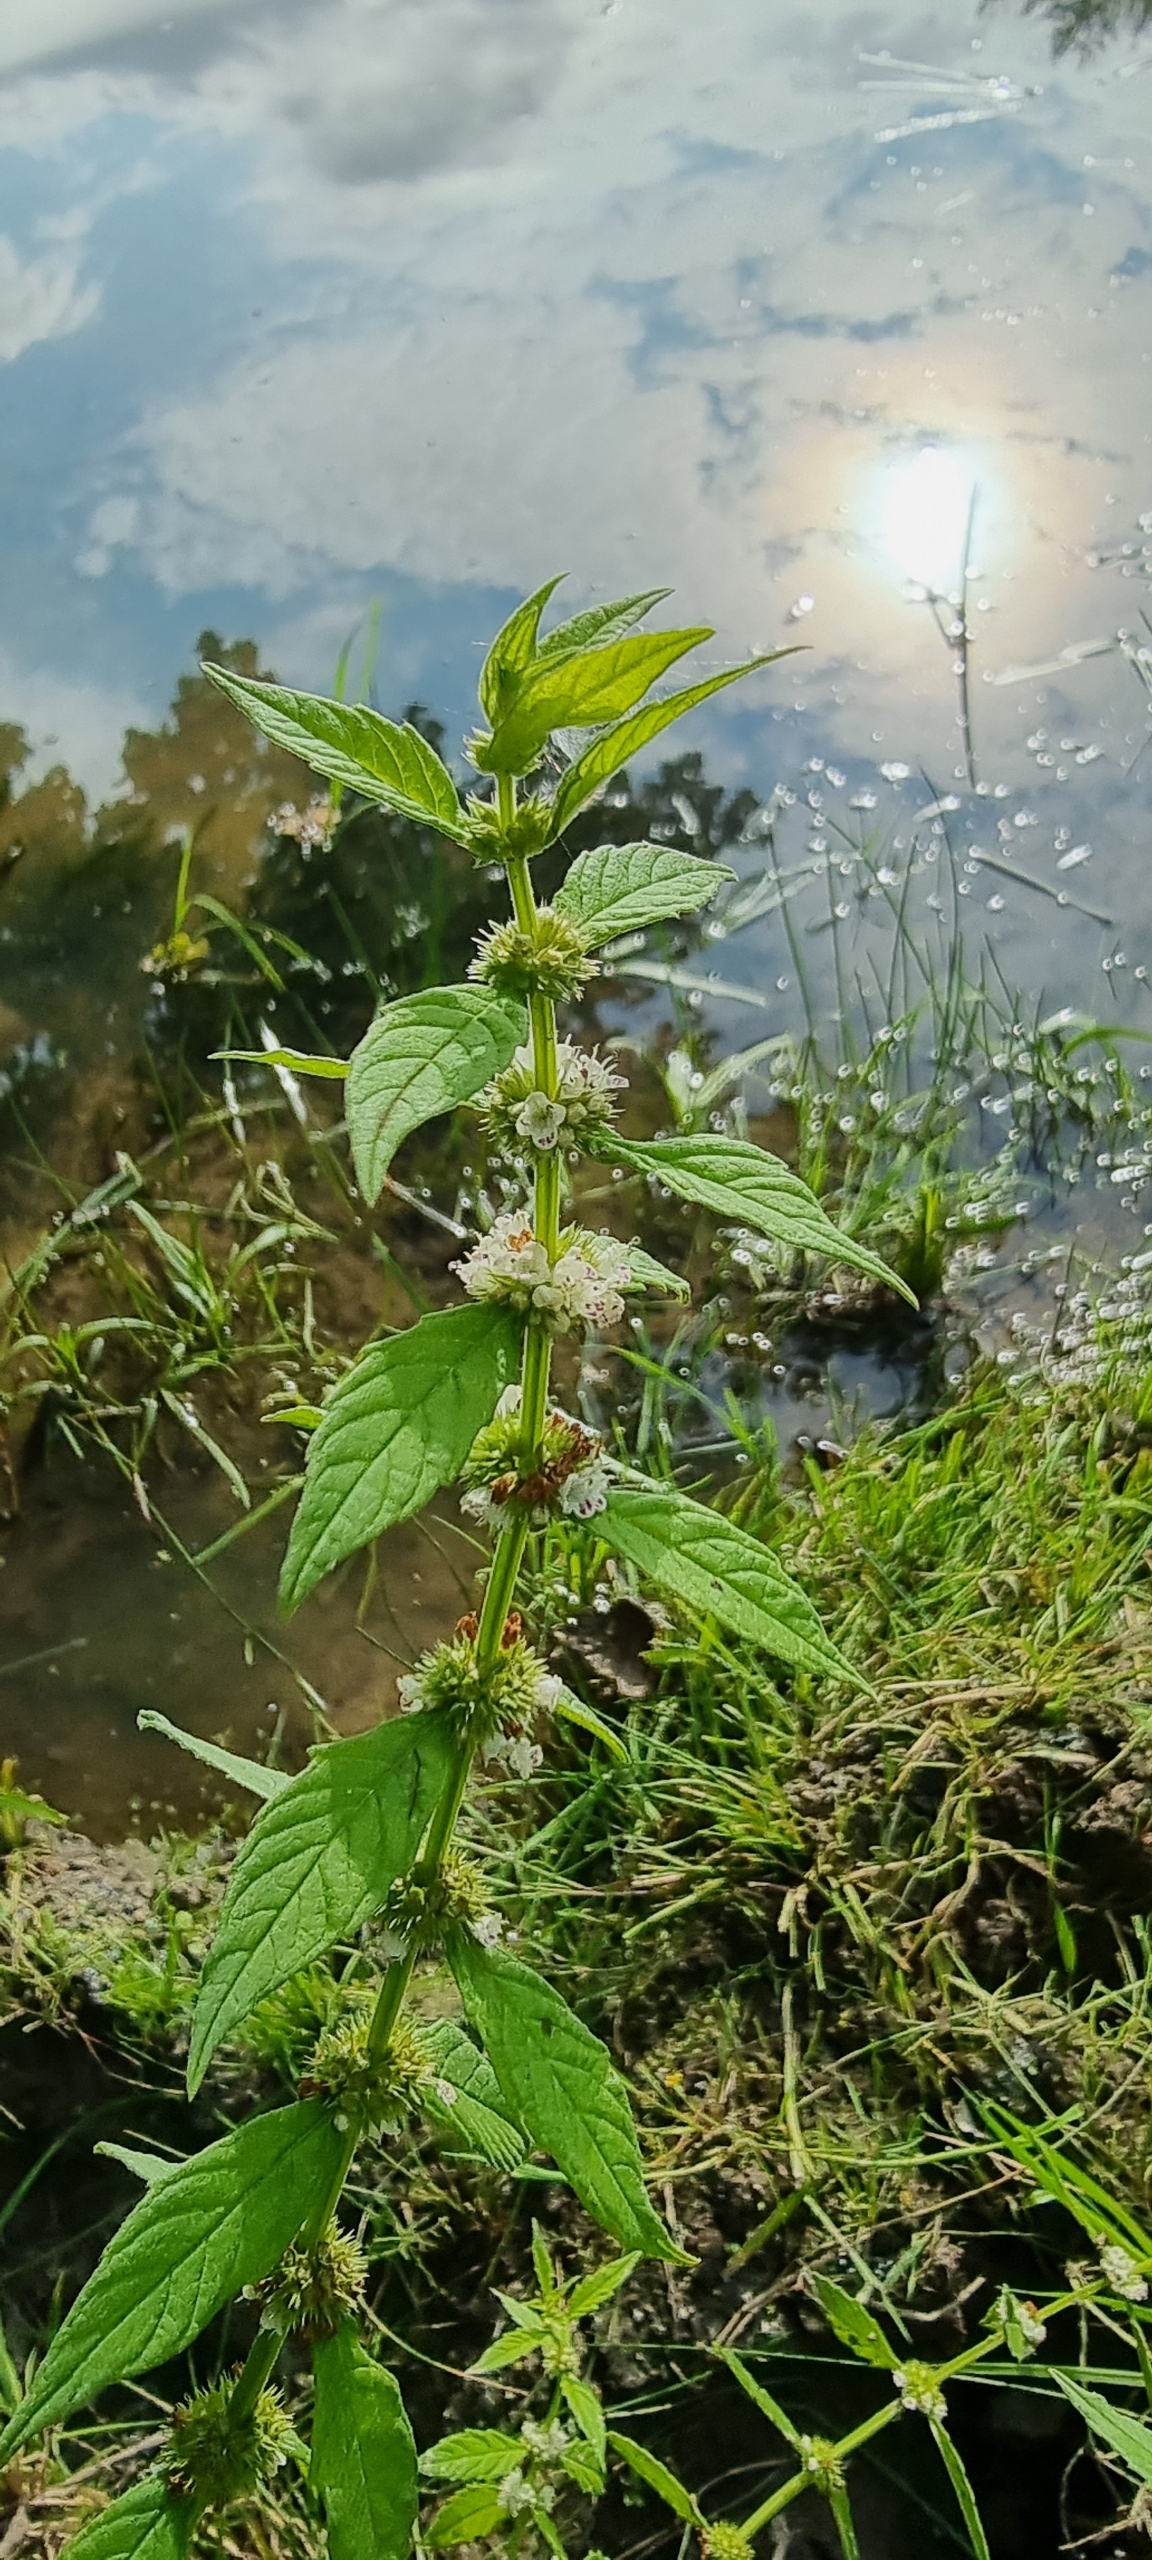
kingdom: Plantae
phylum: Tracheophyta
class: Magnoliopsida
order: Lamiales
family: Lamiaceae
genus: Lycopus
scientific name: Lycopus europaeus
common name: Sværtevæld
